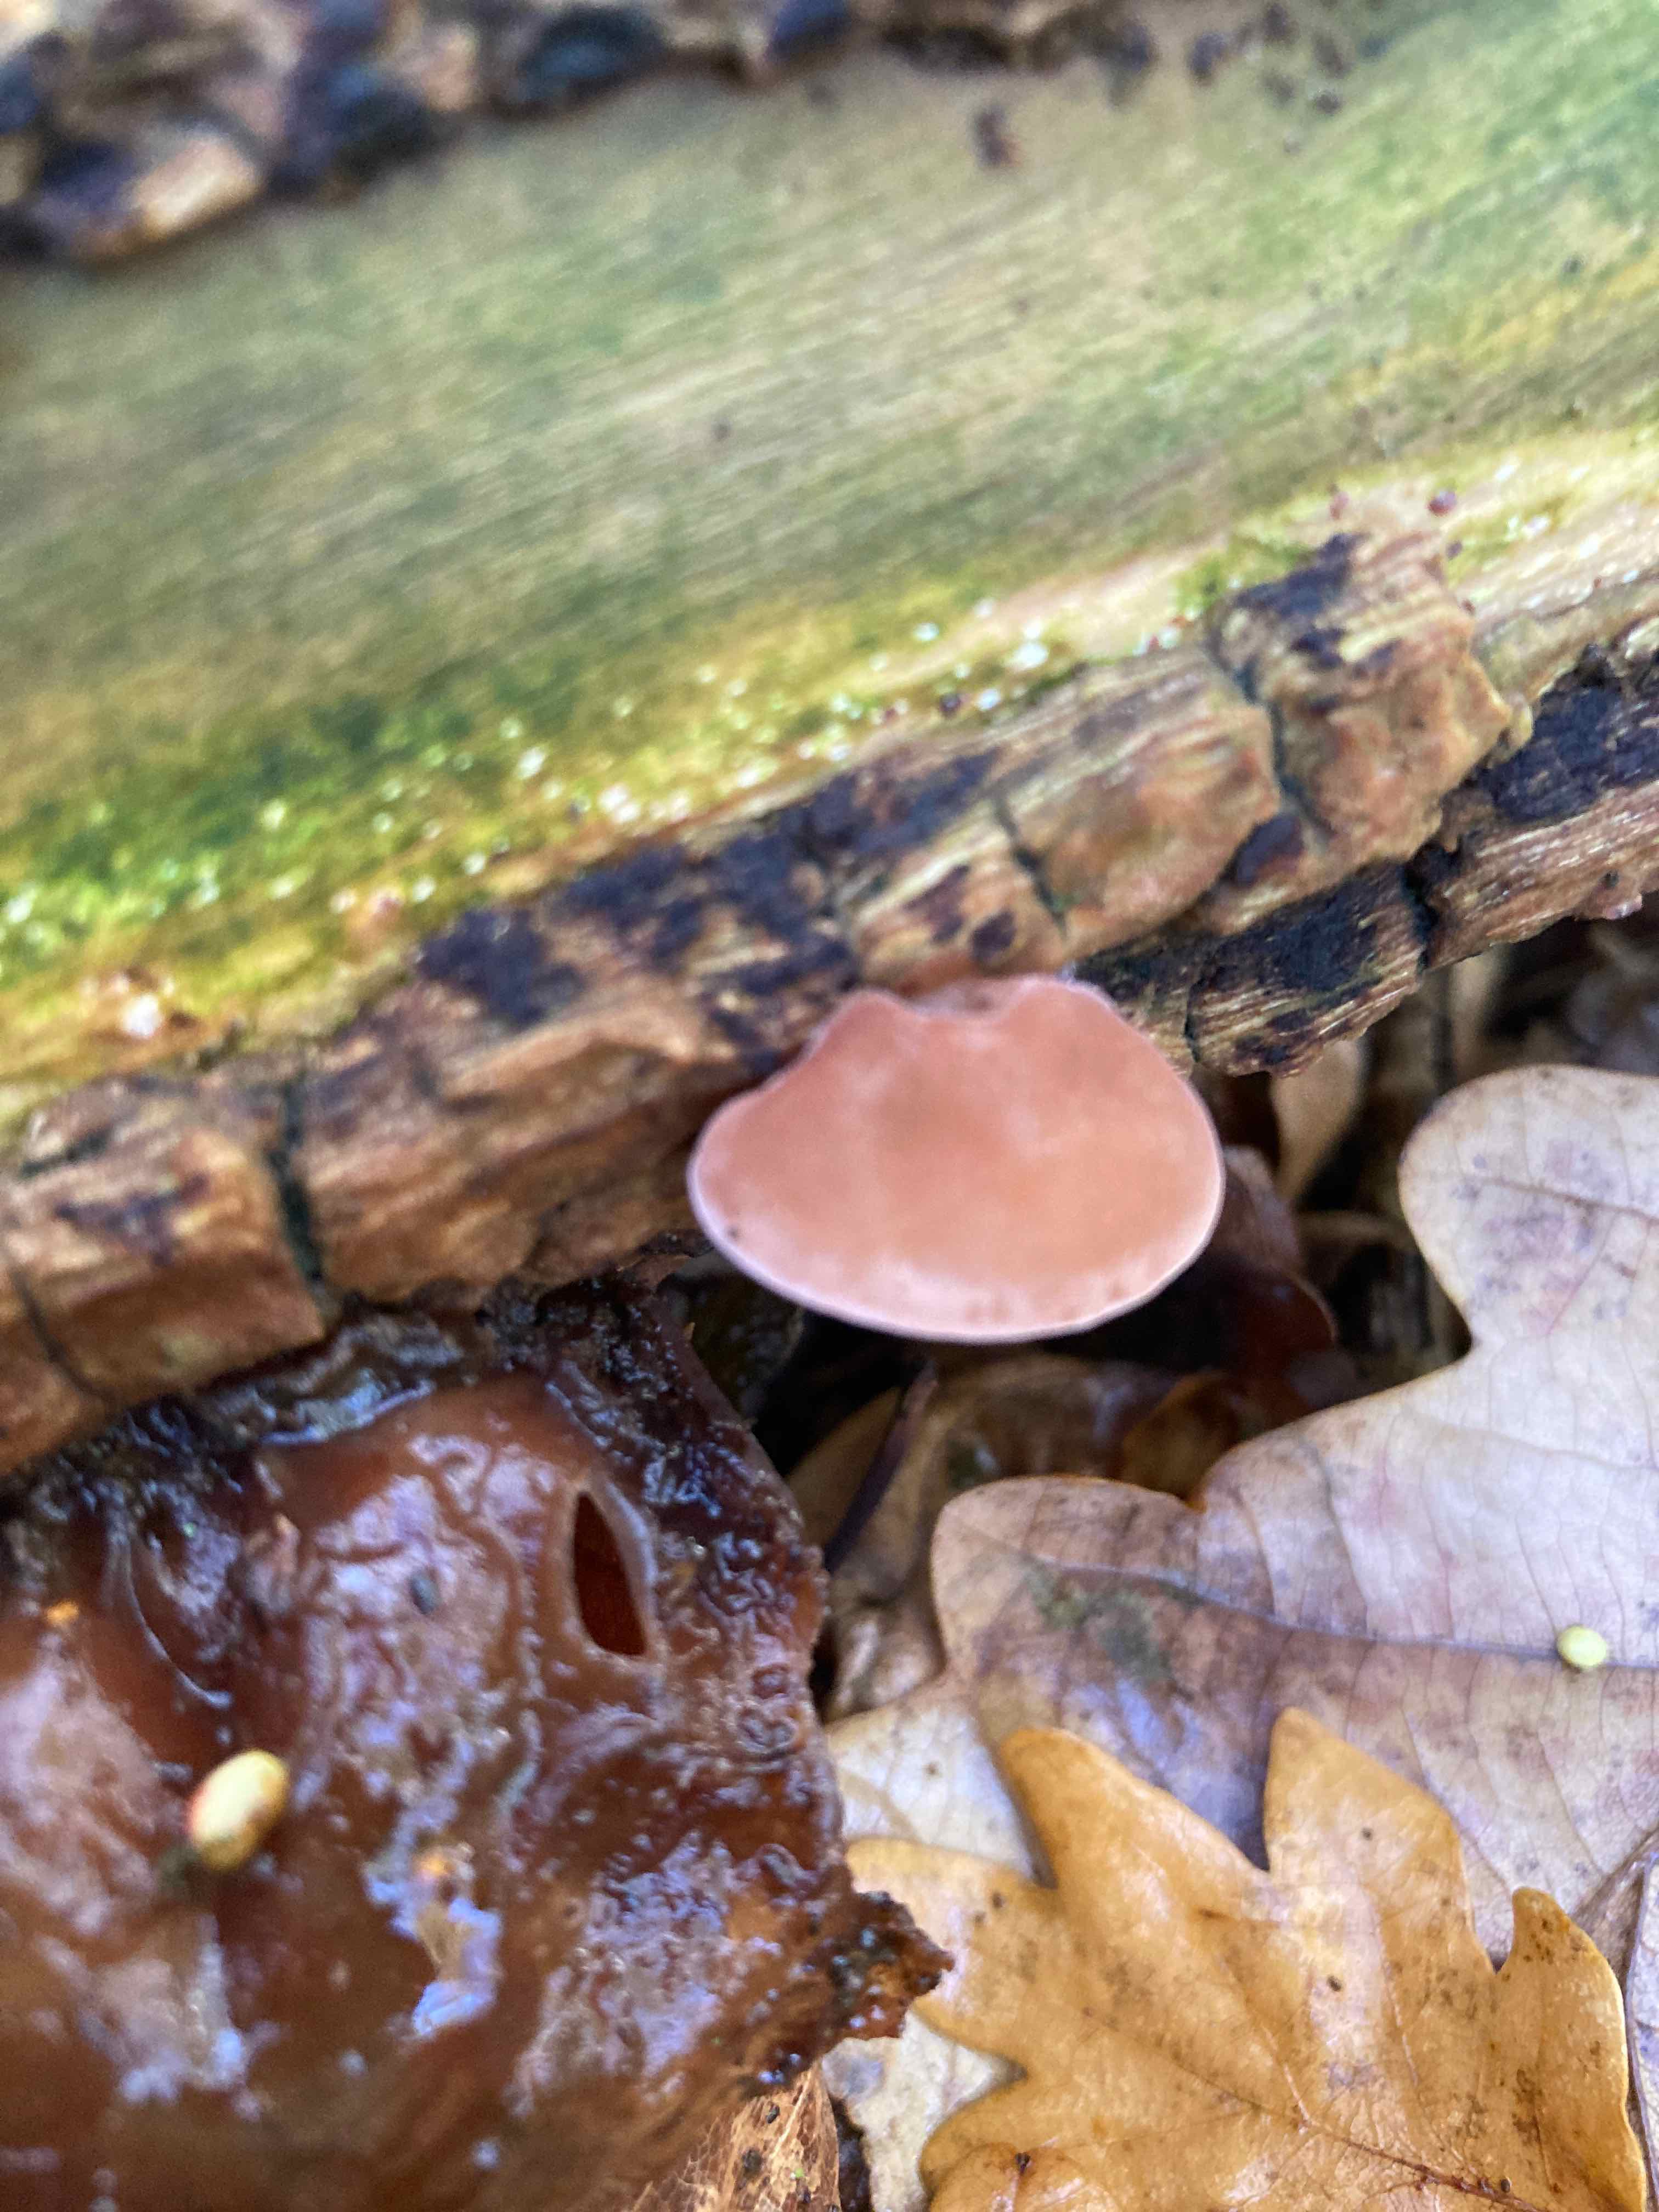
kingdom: Fungi
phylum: Basidiomycota
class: Agaricomycetes
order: Auriculariales
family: Auriculariaceae
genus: Auricularia
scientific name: Auricularia auricula-judae
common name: almindelig judasøre
